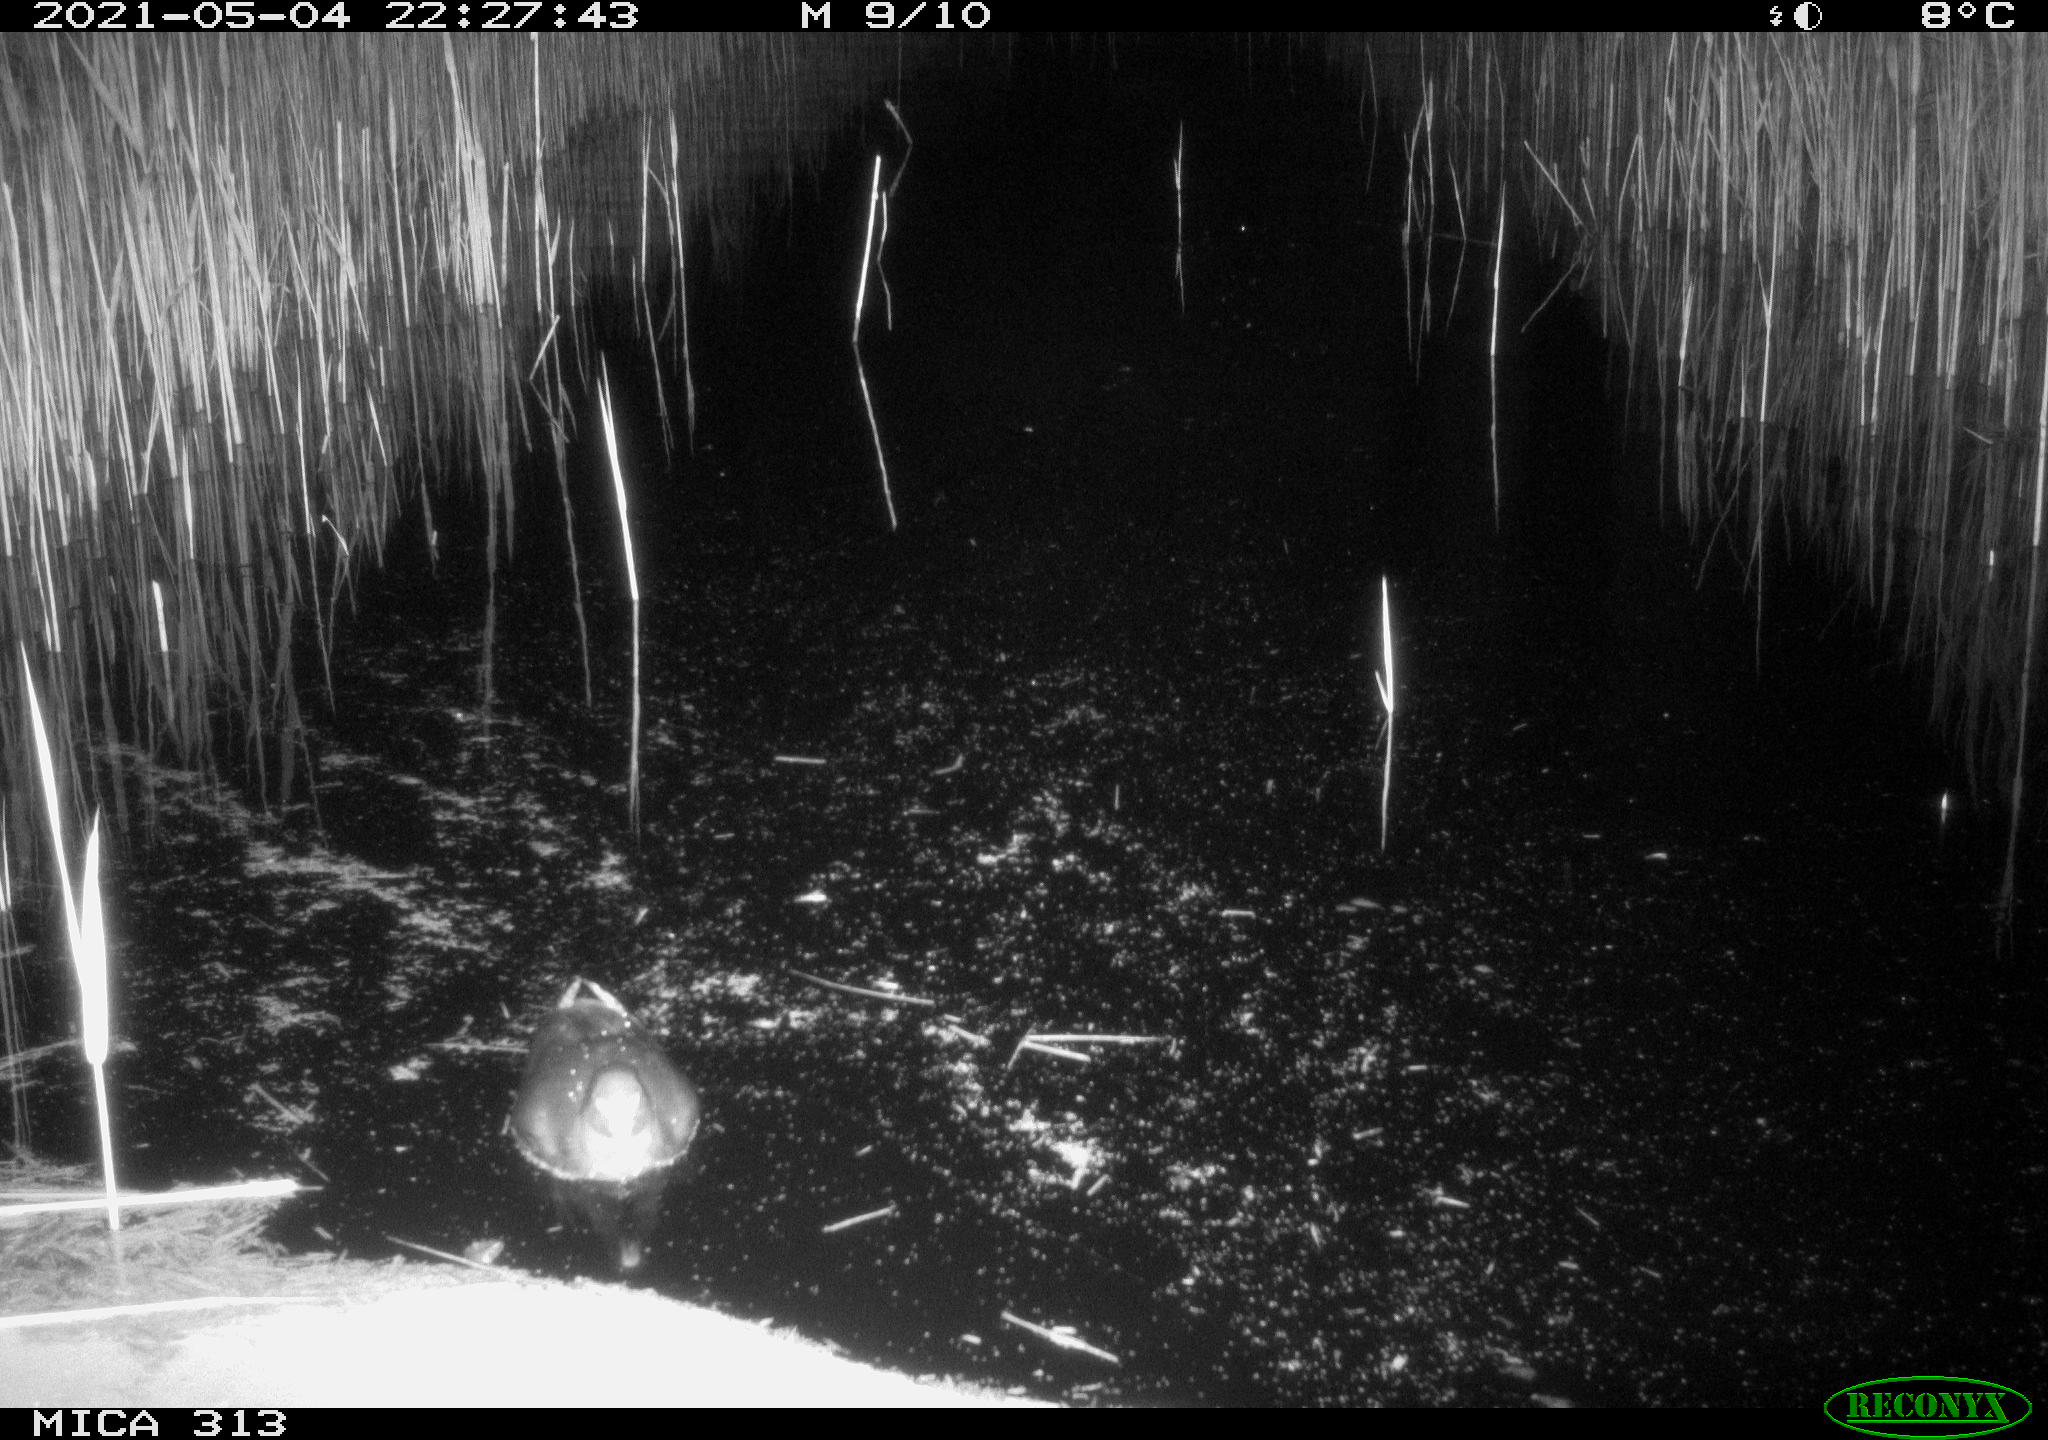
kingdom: Animalia
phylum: Chordata
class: Aves
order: Gruiformes
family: Rallidae
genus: Gallinula
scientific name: Gallinula chloropus
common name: Common moorhen
